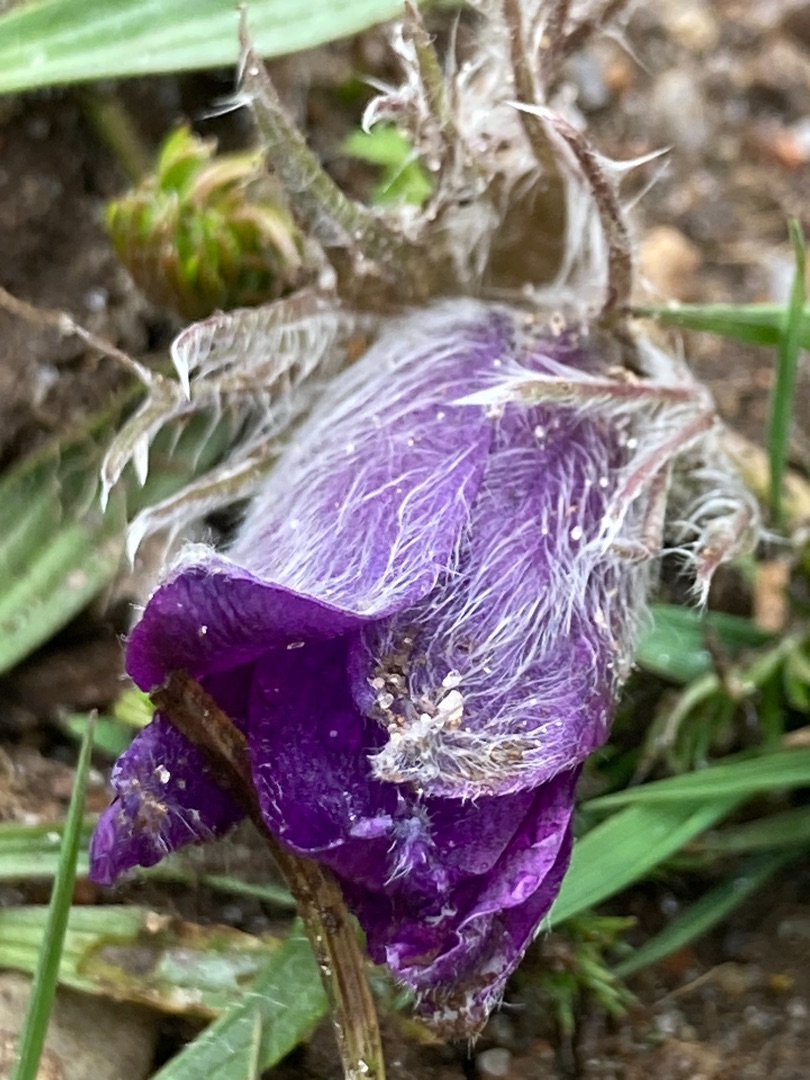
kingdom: Plantae
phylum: Tracheophyta
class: Magnoliopsida
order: Ranunculales
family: Ranunculaceae
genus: Pulsatilla
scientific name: Pulsatilla vulgaris
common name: Opret kobjælde
